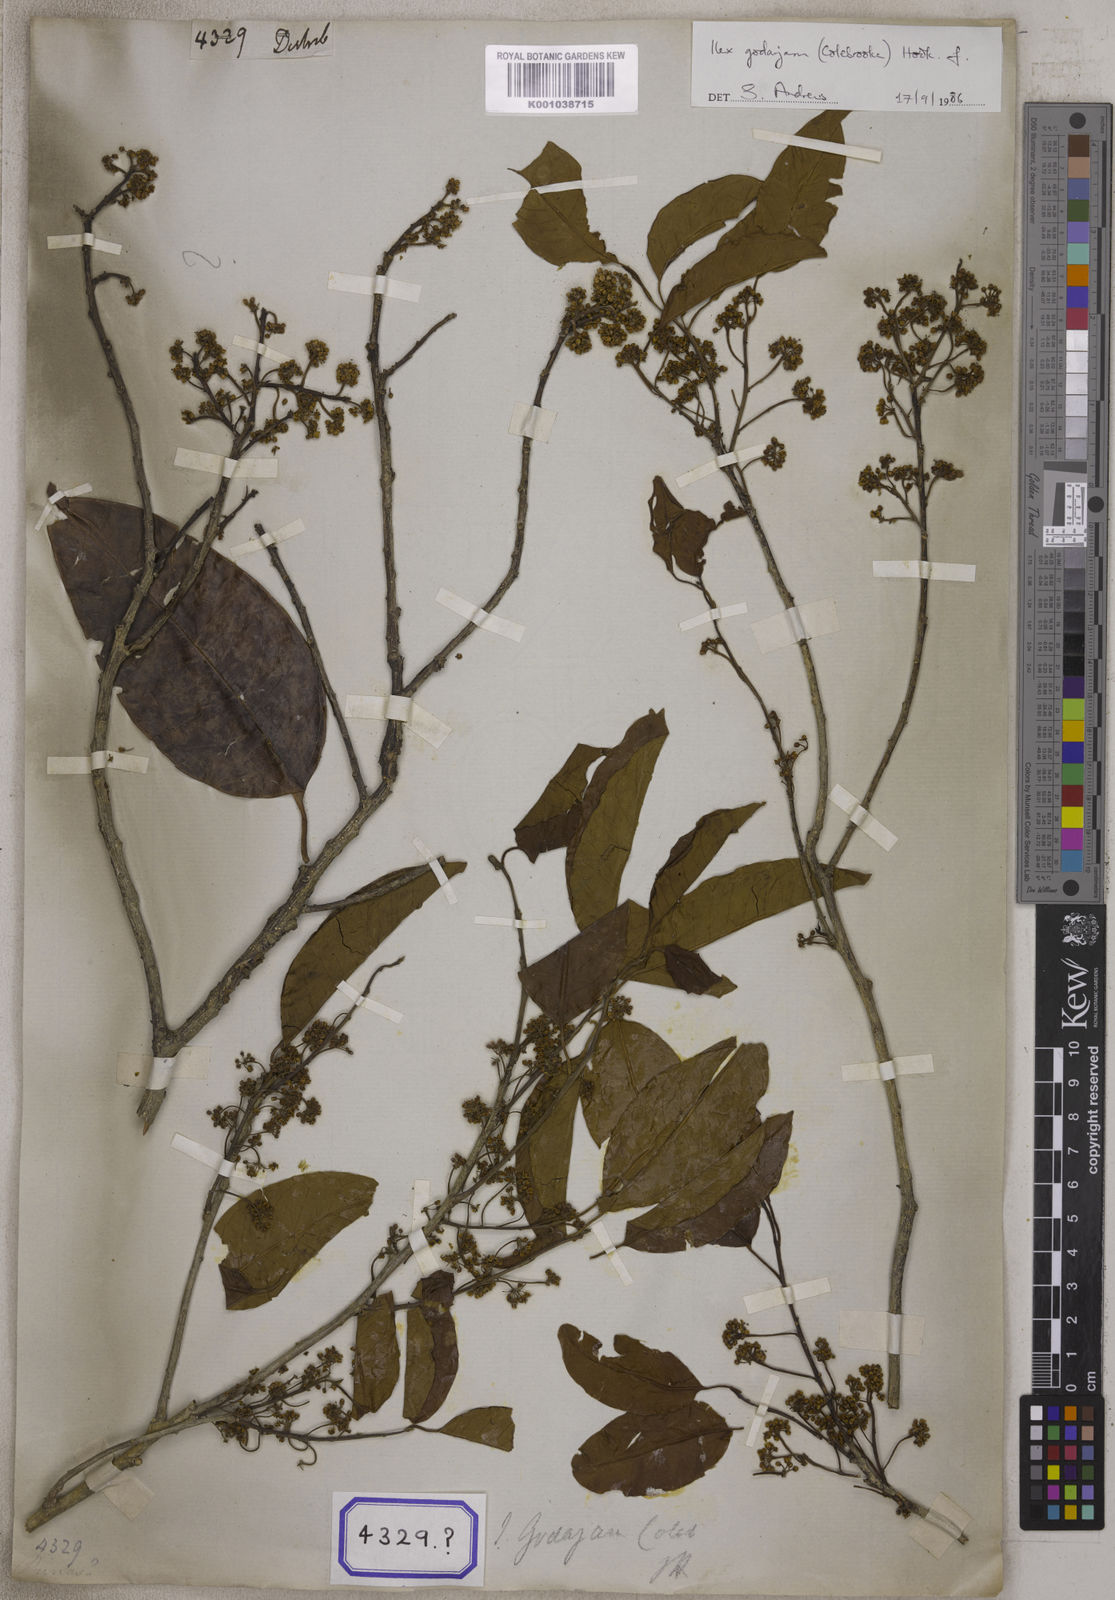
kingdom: Plantae
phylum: Tracheophyta
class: Magnoliopsida
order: Aquifoliales
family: Aquifoliaceae
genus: Ilex
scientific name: Ilex
